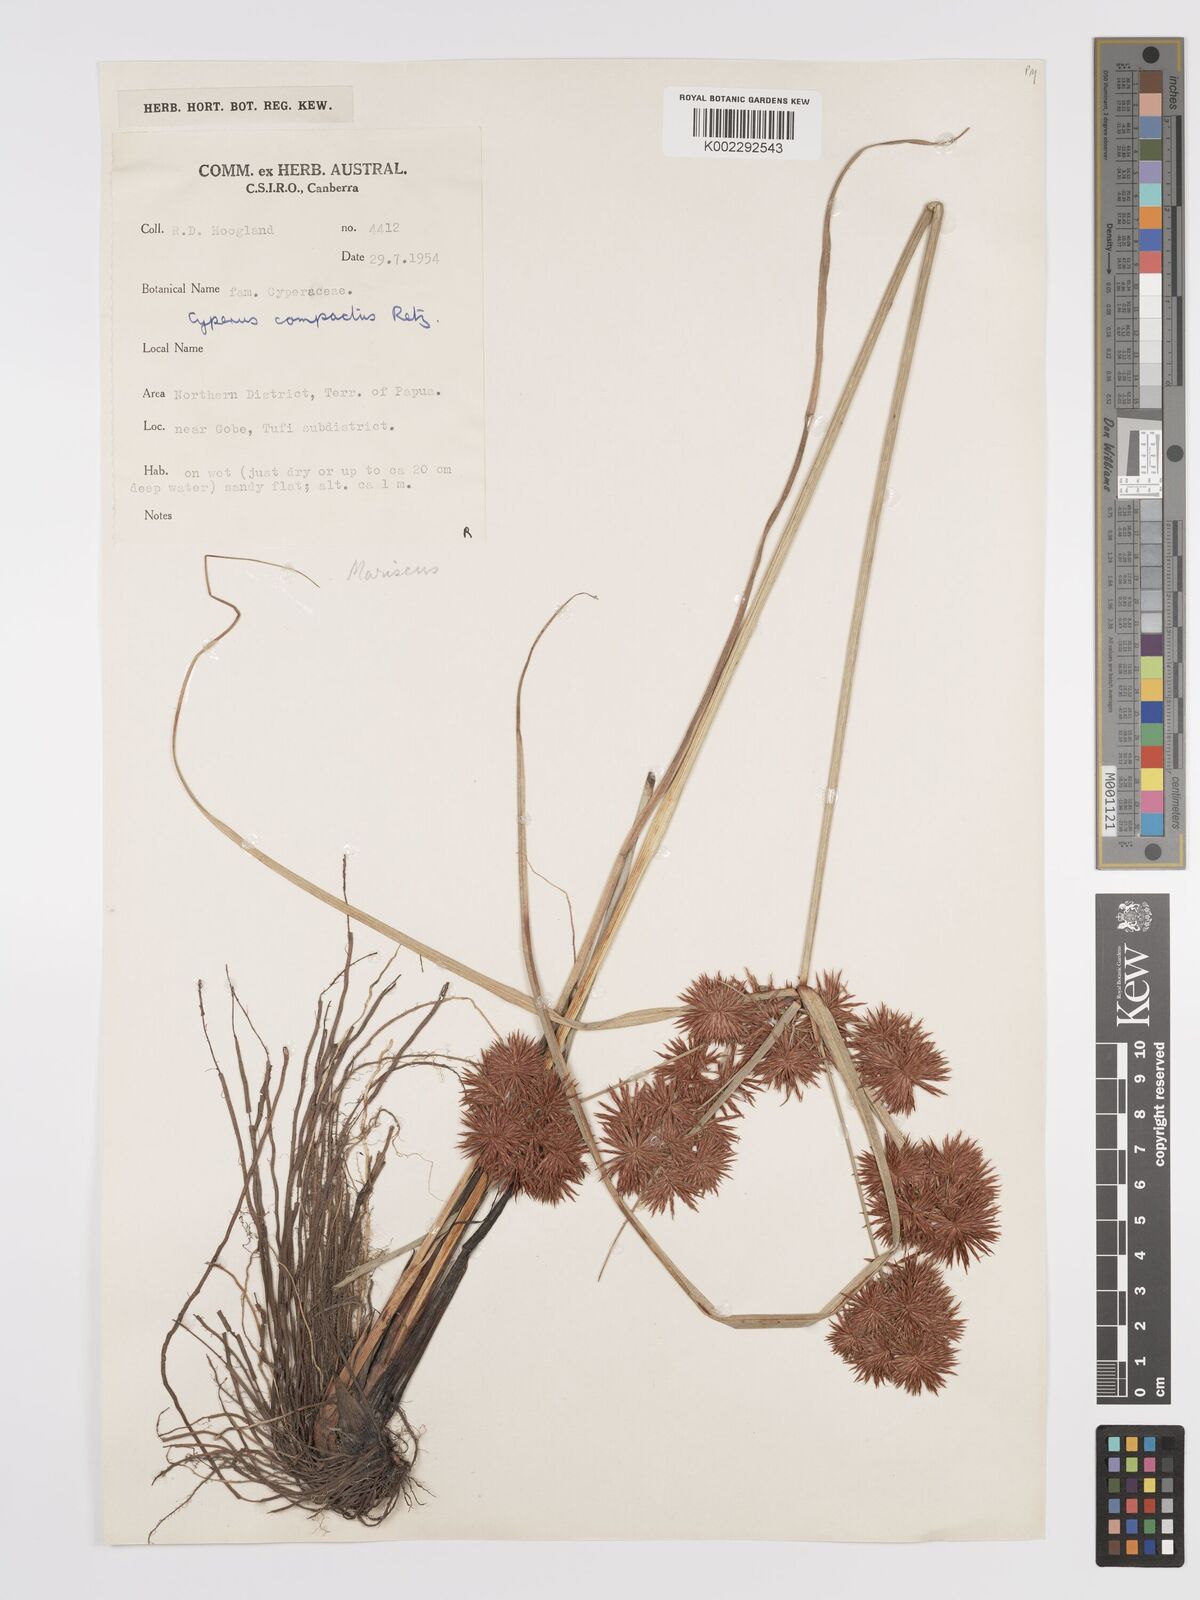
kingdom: Plantae
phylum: Tracheophyta
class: Liliopsida
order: Poales
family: Cyperaceae
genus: Cyperus
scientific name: Cyperus compactus
